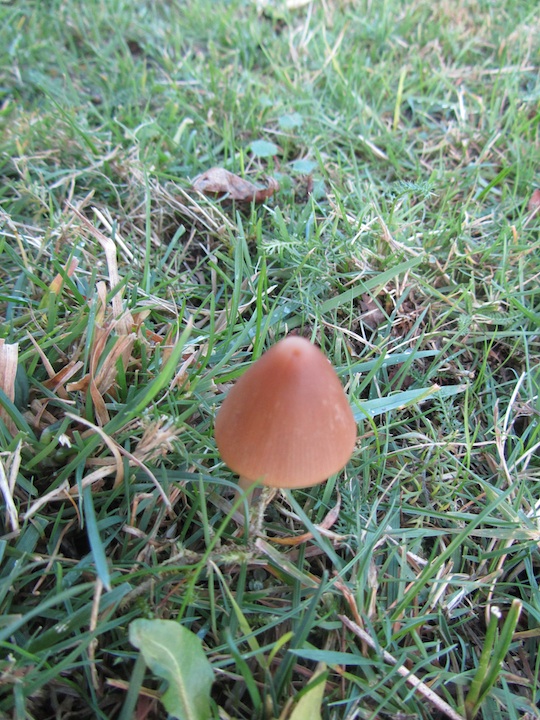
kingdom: Fungi
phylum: Basidiomycota
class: Agaricomycetes
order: Agaricales
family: Psathyrellaceae
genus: Parasola
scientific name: Parasola conopilea
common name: kegle-hjulhat
